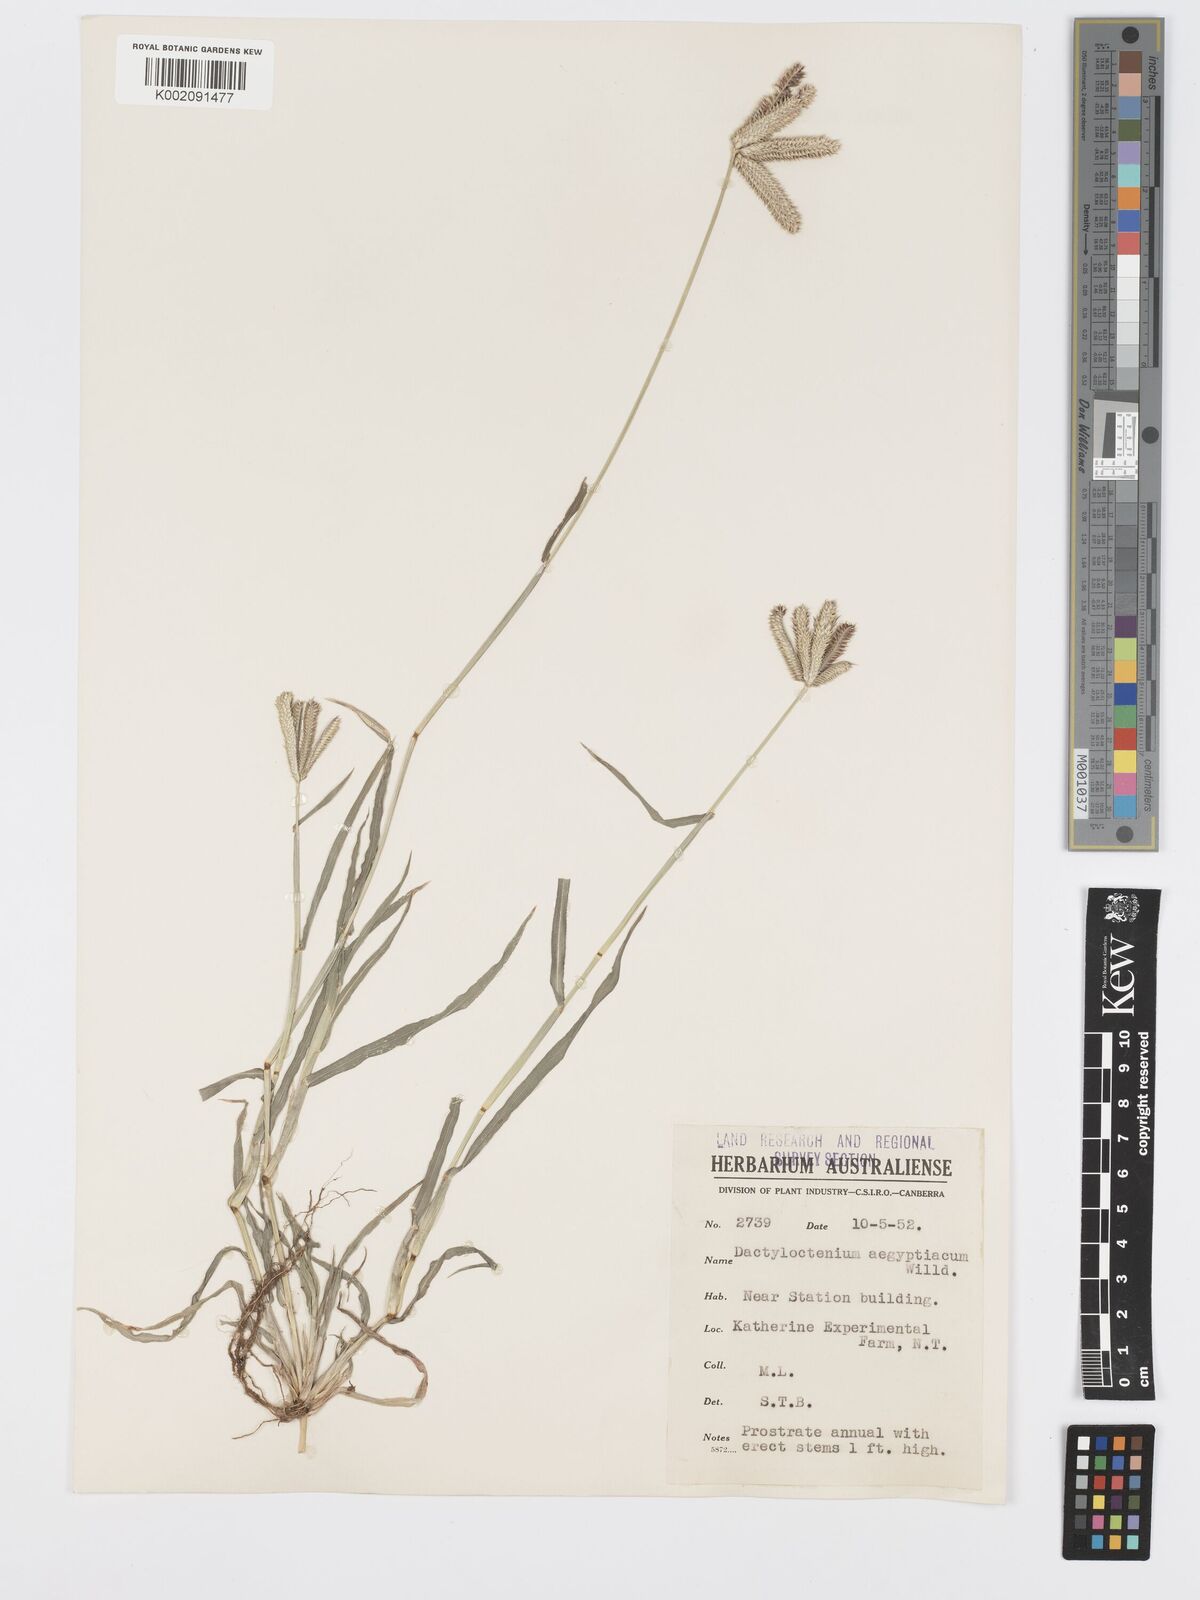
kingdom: Plantae
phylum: Tracheophyta
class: Liliopsida
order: Poales
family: Poaceae
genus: Dactyloctenium
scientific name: Dactyloctenium aegyptium
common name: Egyptian grass
